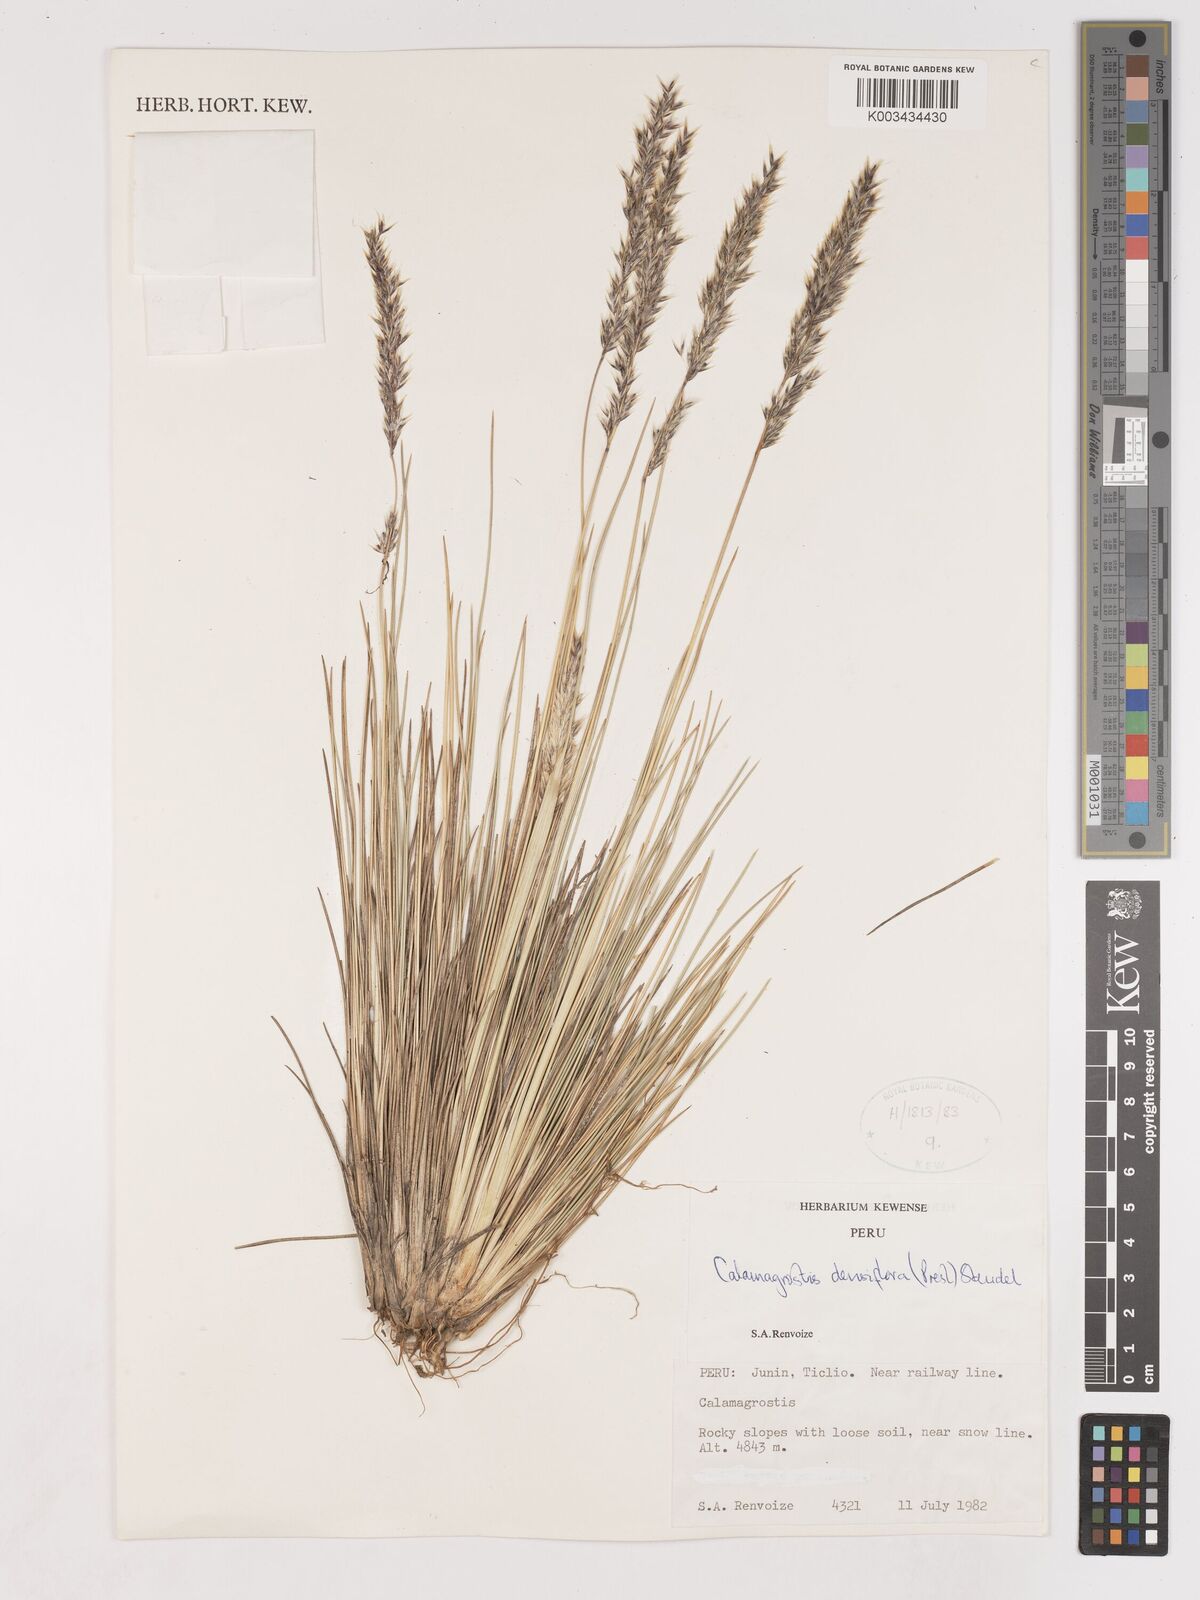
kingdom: Plantae
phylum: Tracheophyta
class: Liliopsida
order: Poales
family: Poaceae
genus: Cinnagrostis
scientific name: Cinnagrostis densiflora
